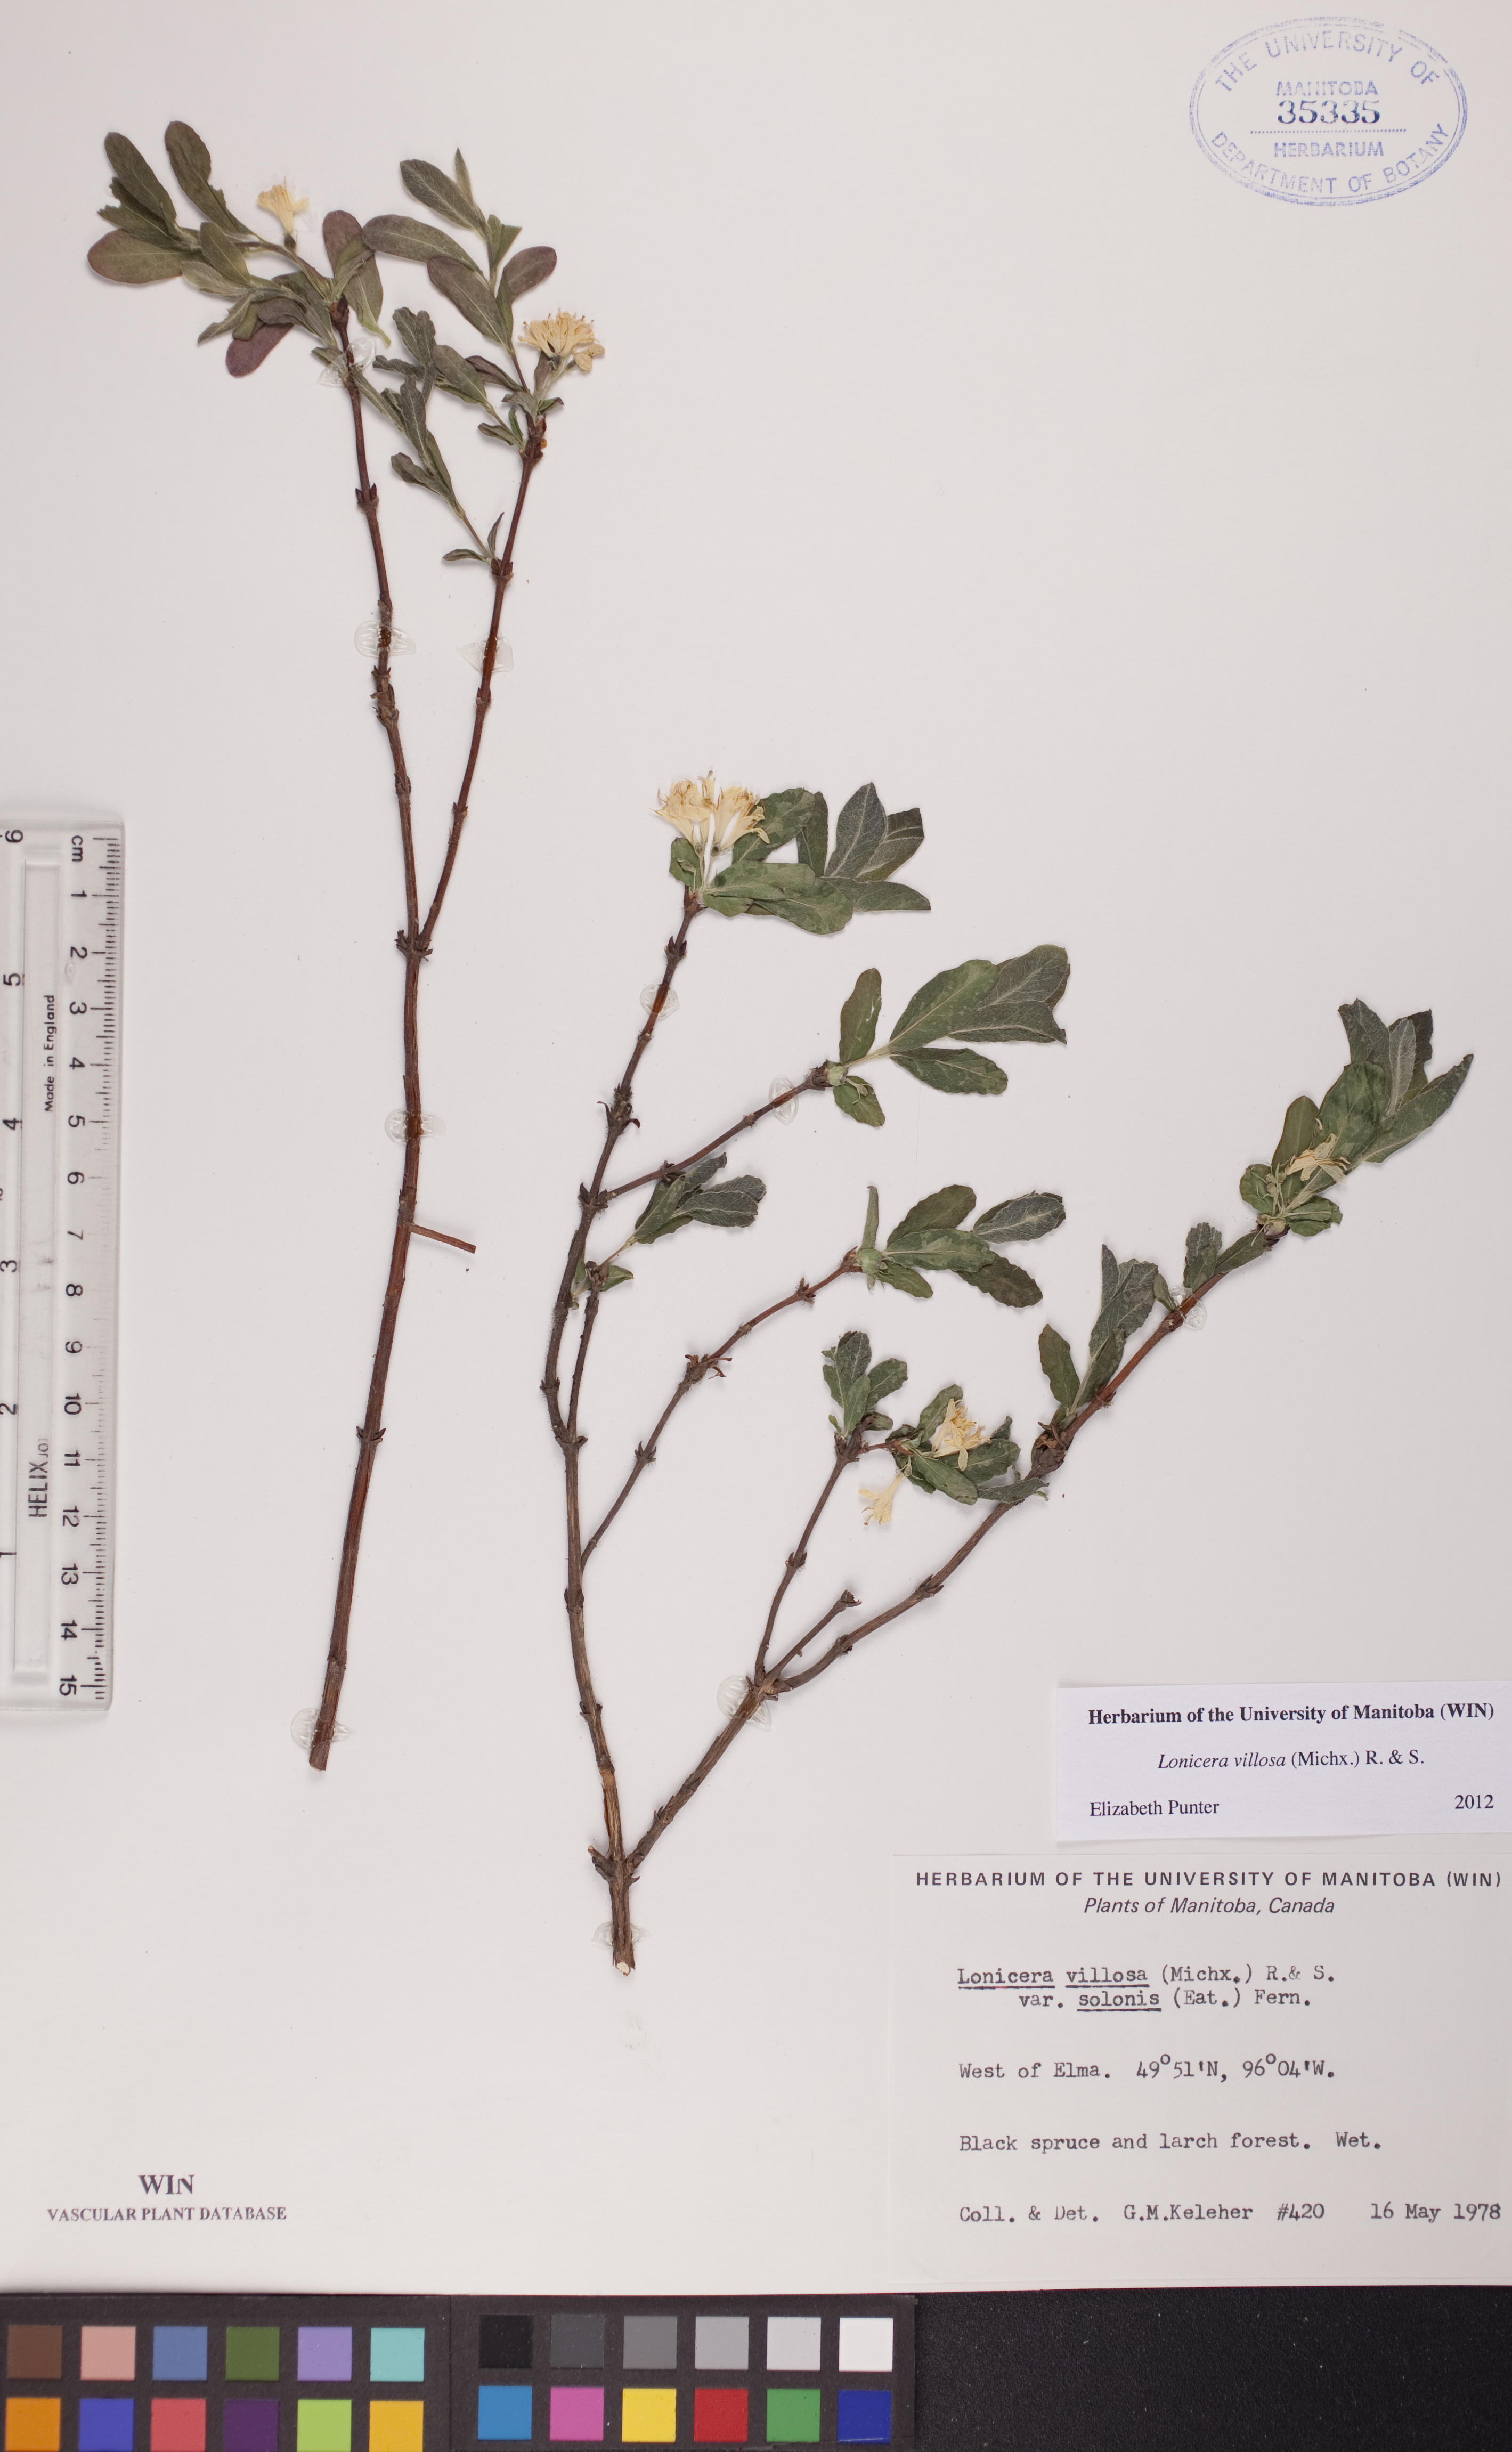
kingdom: Plantae
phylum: Tracheophyta
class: Magnoliopsida
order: Dipsacales
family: Caprifoliaceae
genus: Lonicera
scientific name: Lonicera villosa
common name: Mountain fly-honeysuckle
